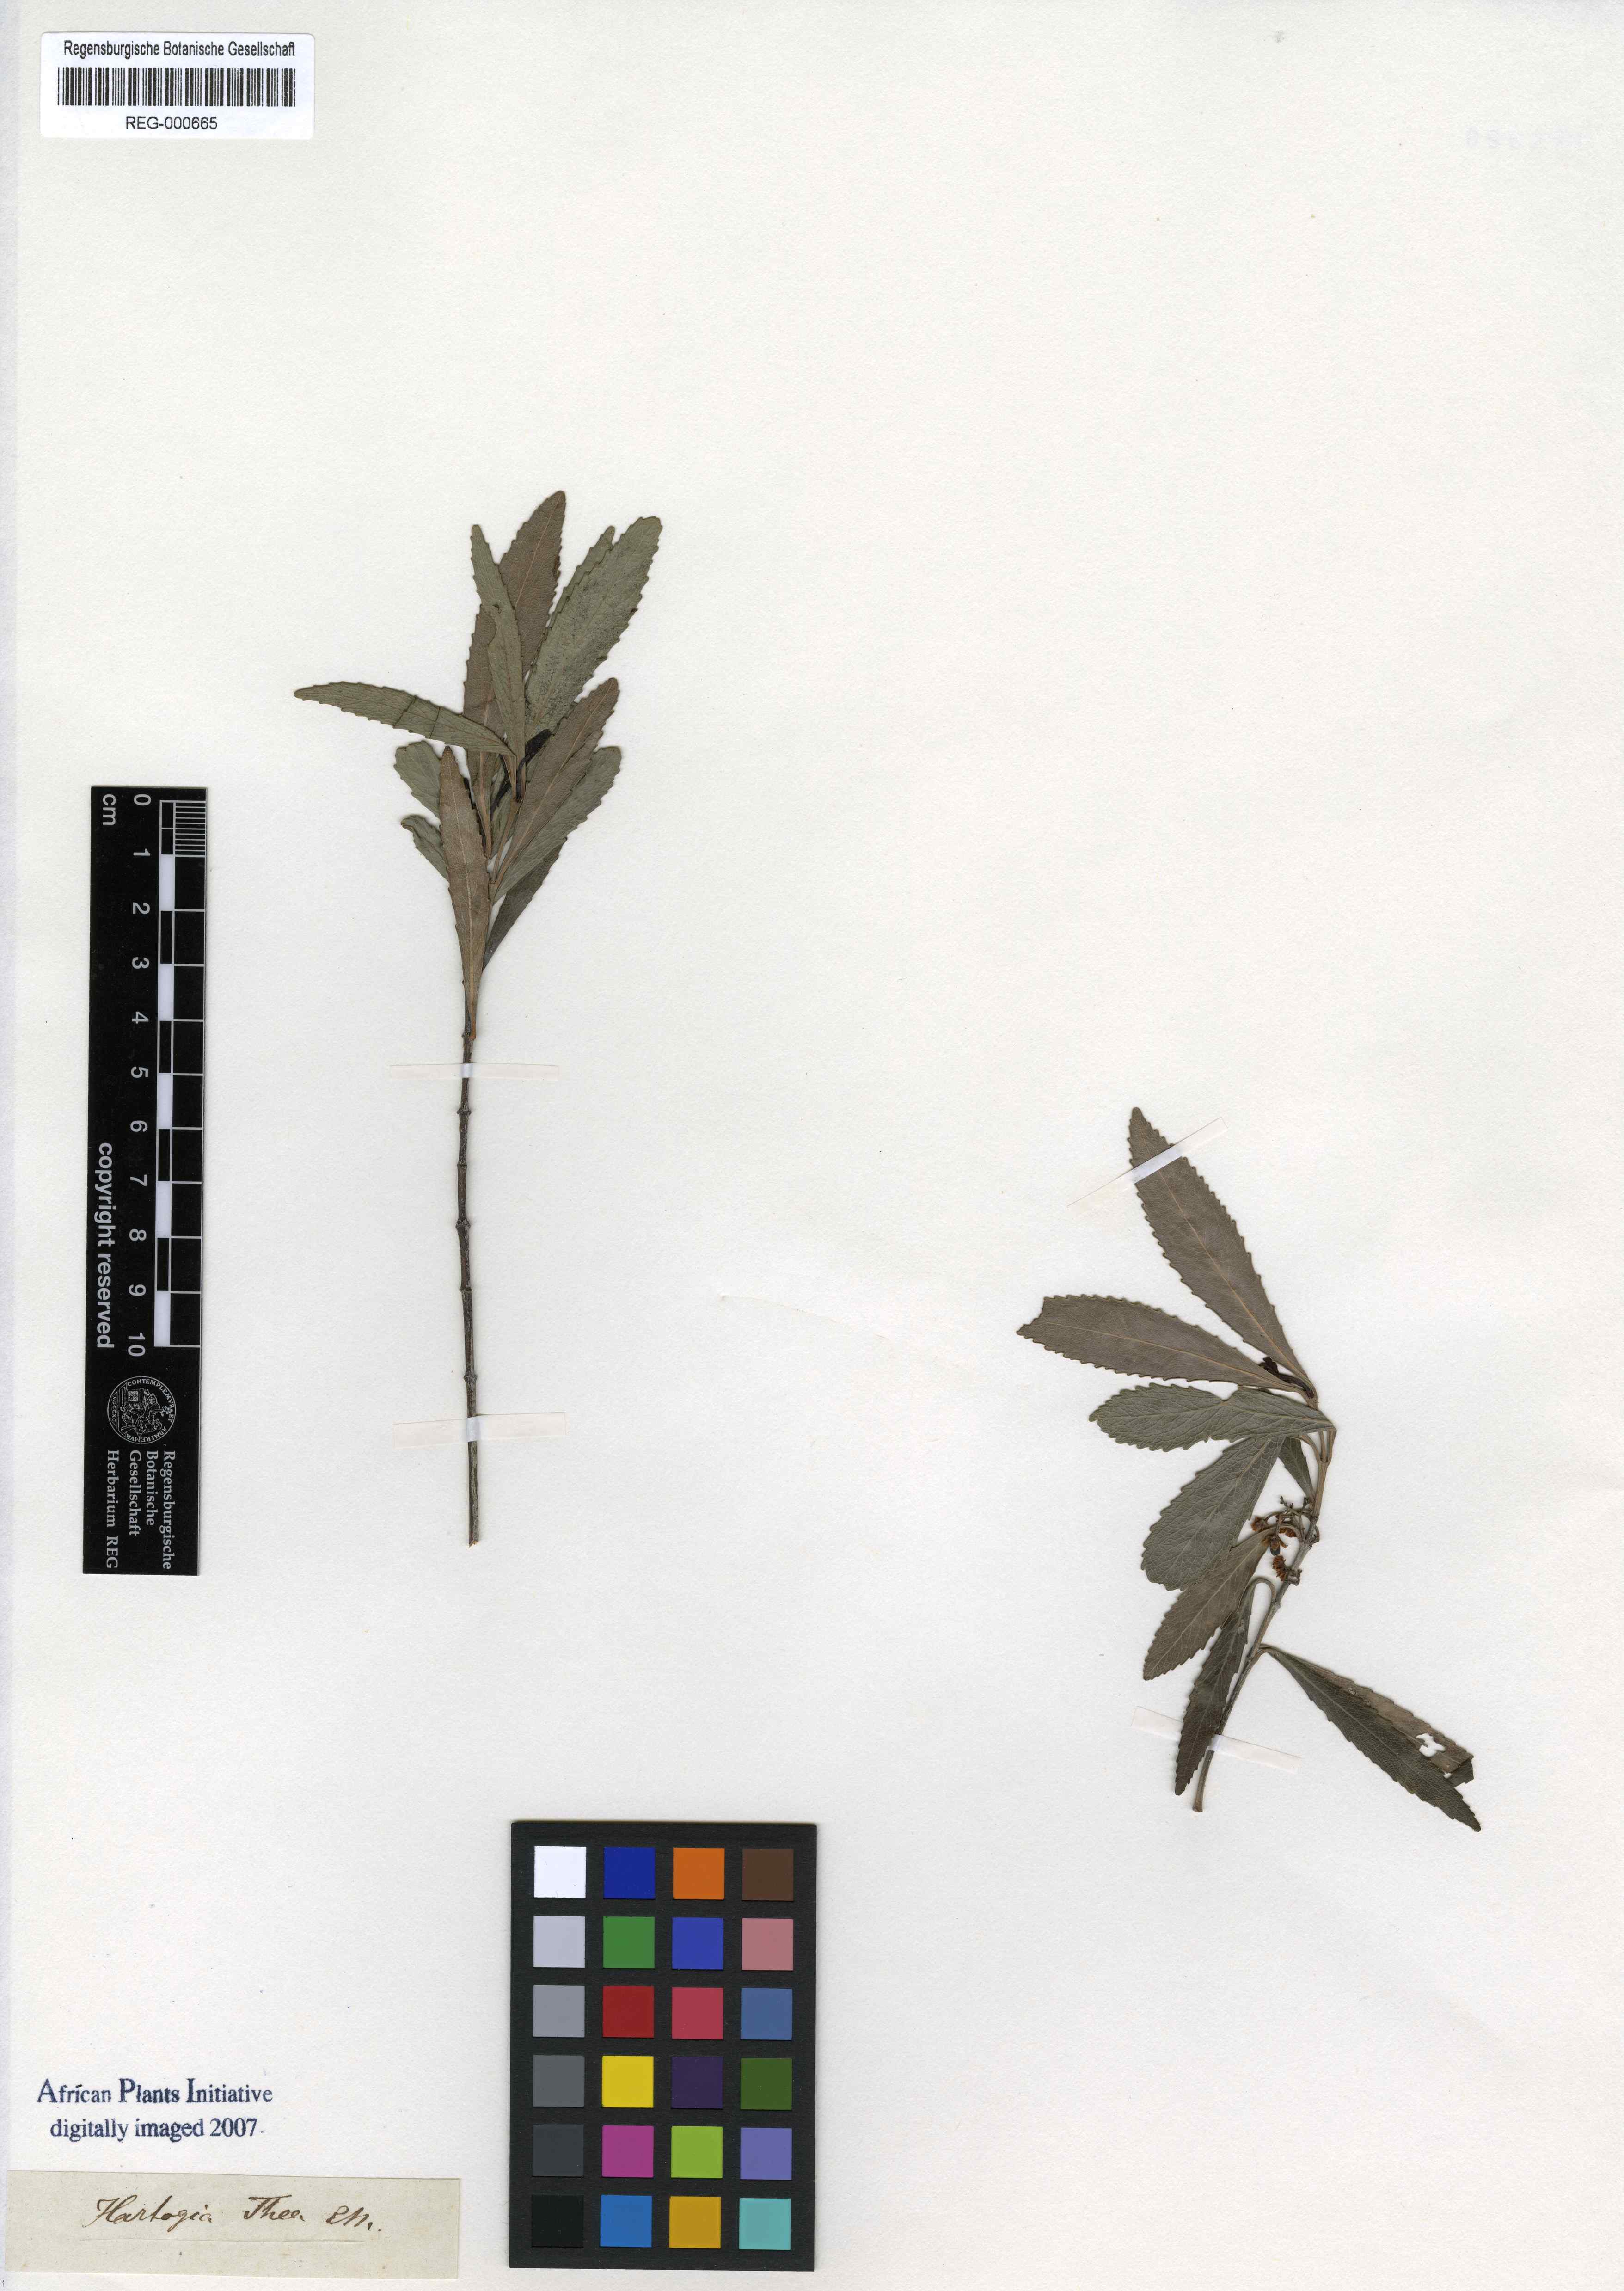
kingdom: Plantae
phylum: Tracheophyta
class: Magnoliopsida
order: Celastrales
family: Celastraceae
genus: Catha
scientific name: Catha edulis
